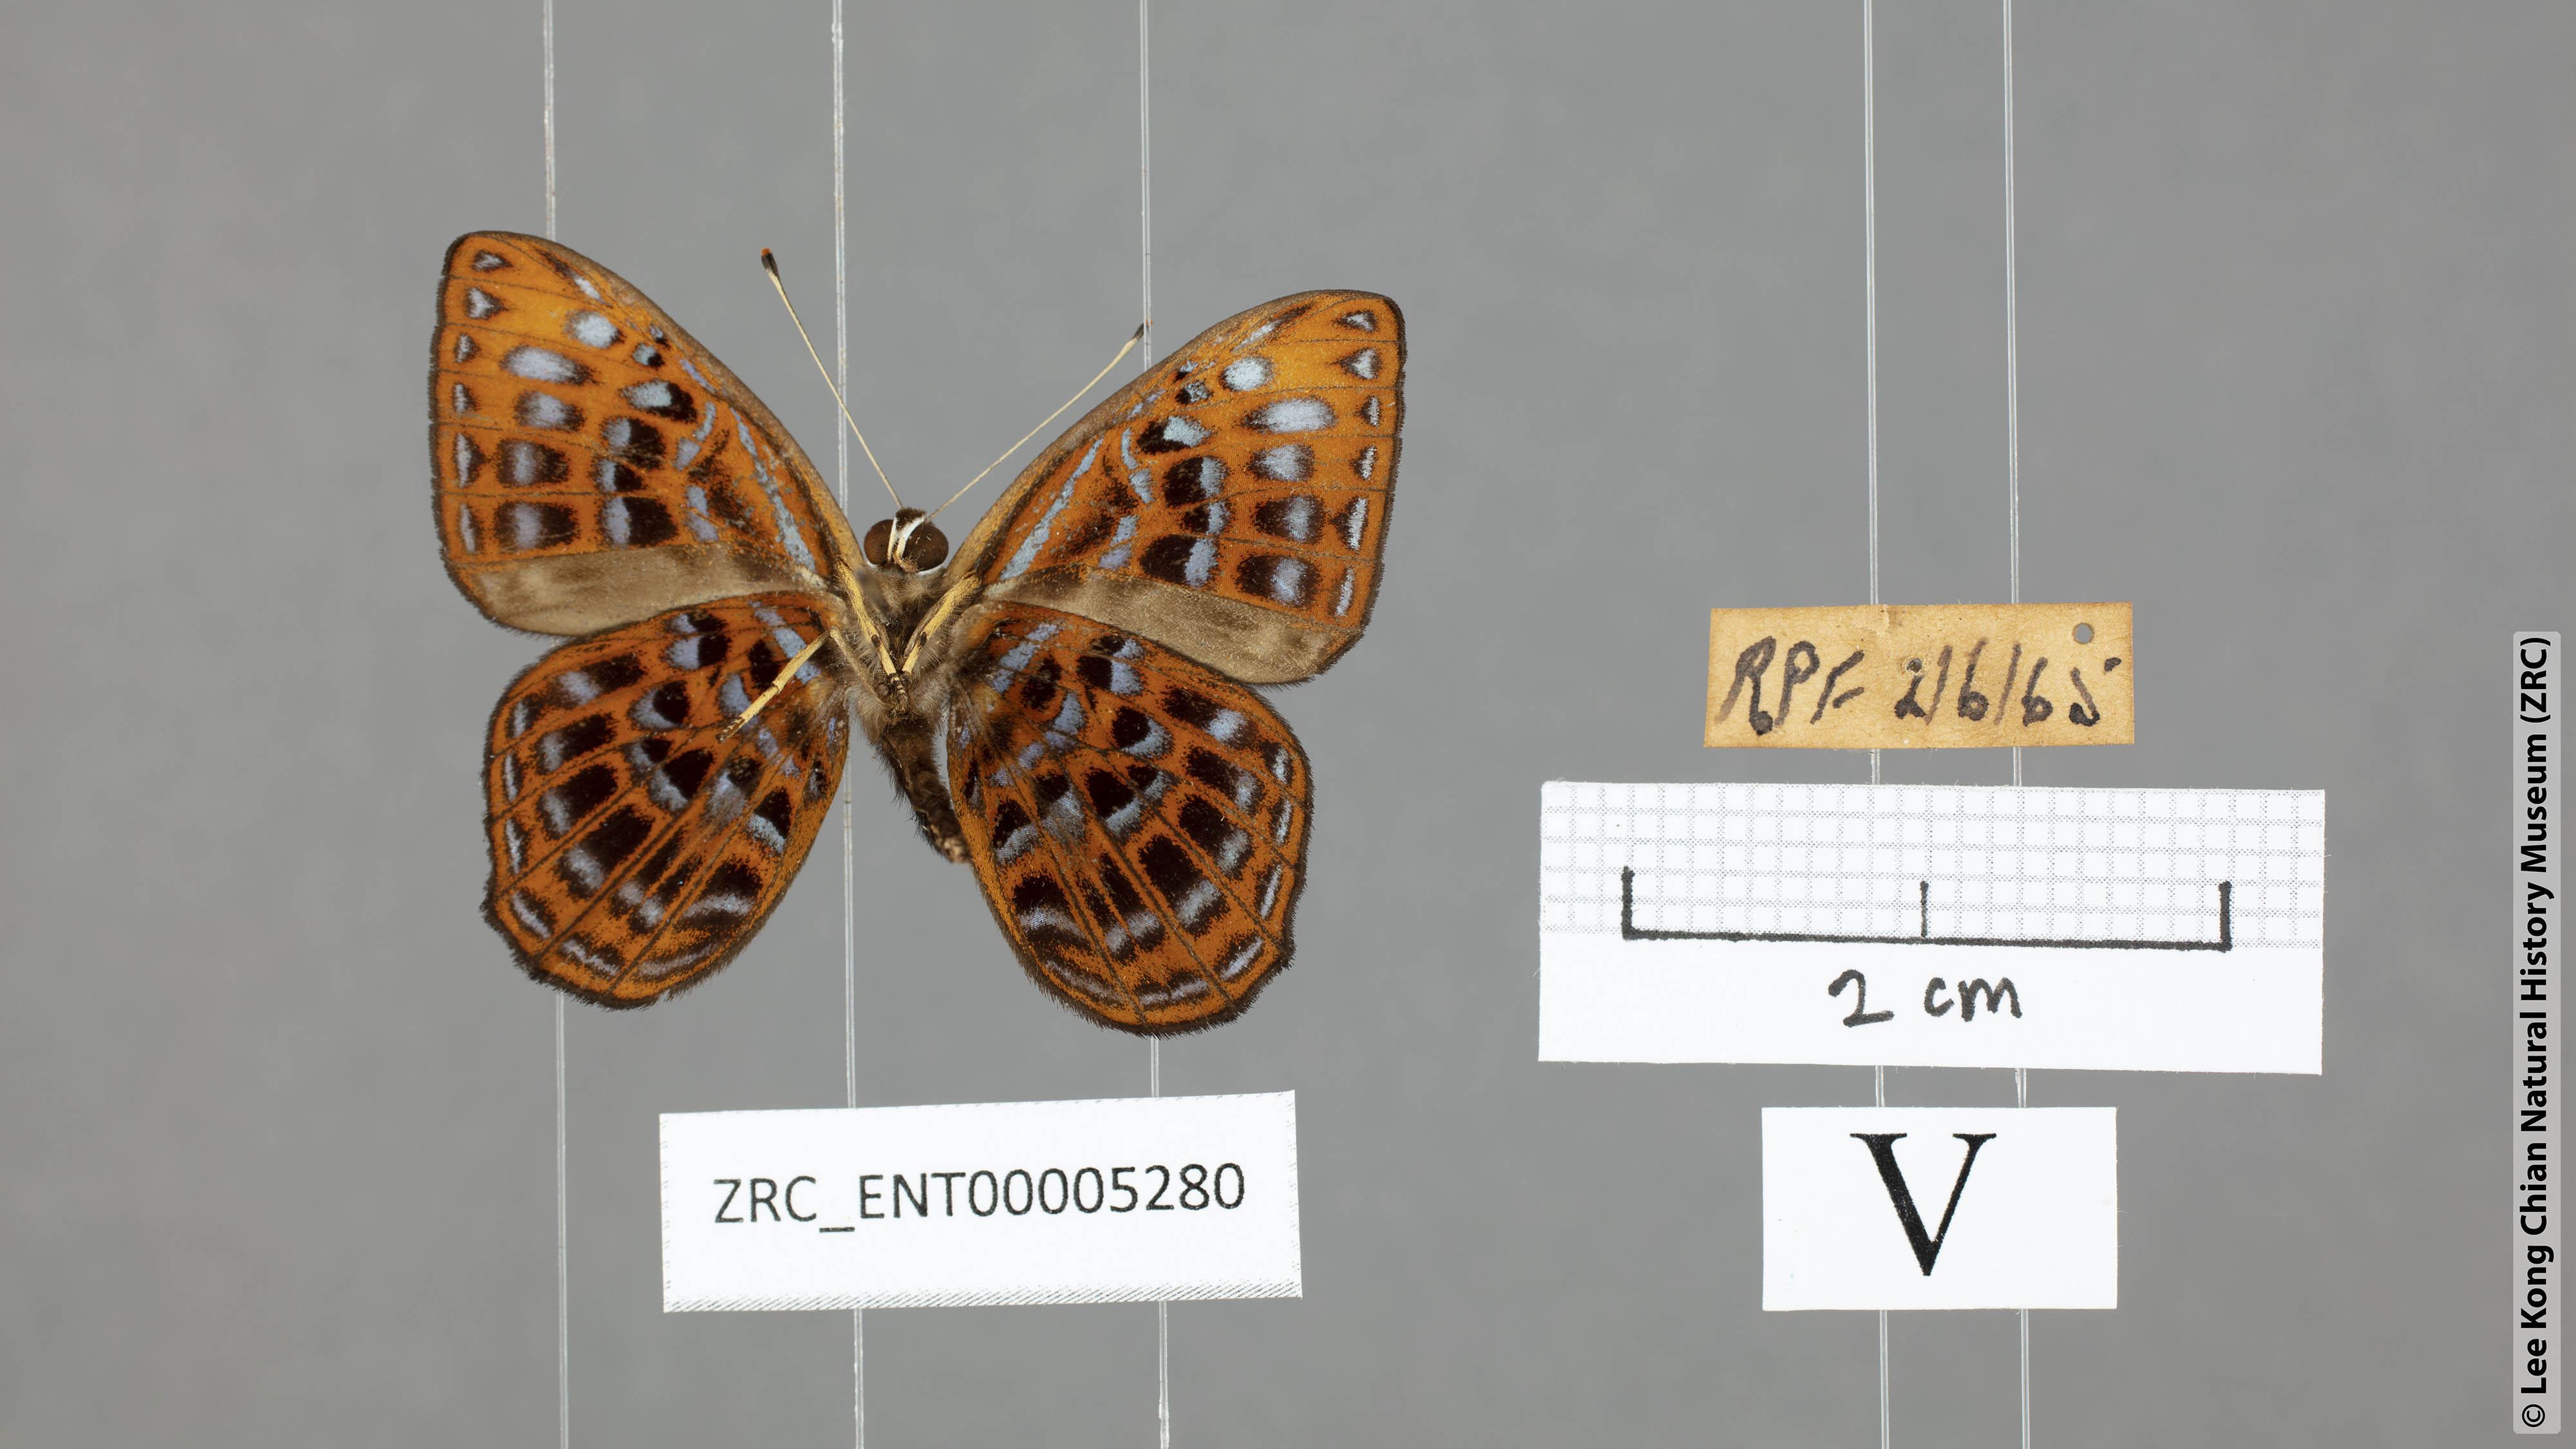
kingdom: Animalia
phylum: Arthropoda
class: Insecta
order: Lepidoptera
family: Riodinidae
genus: Laxita
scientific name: Laxita thuisto
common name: Lesser harlequin
